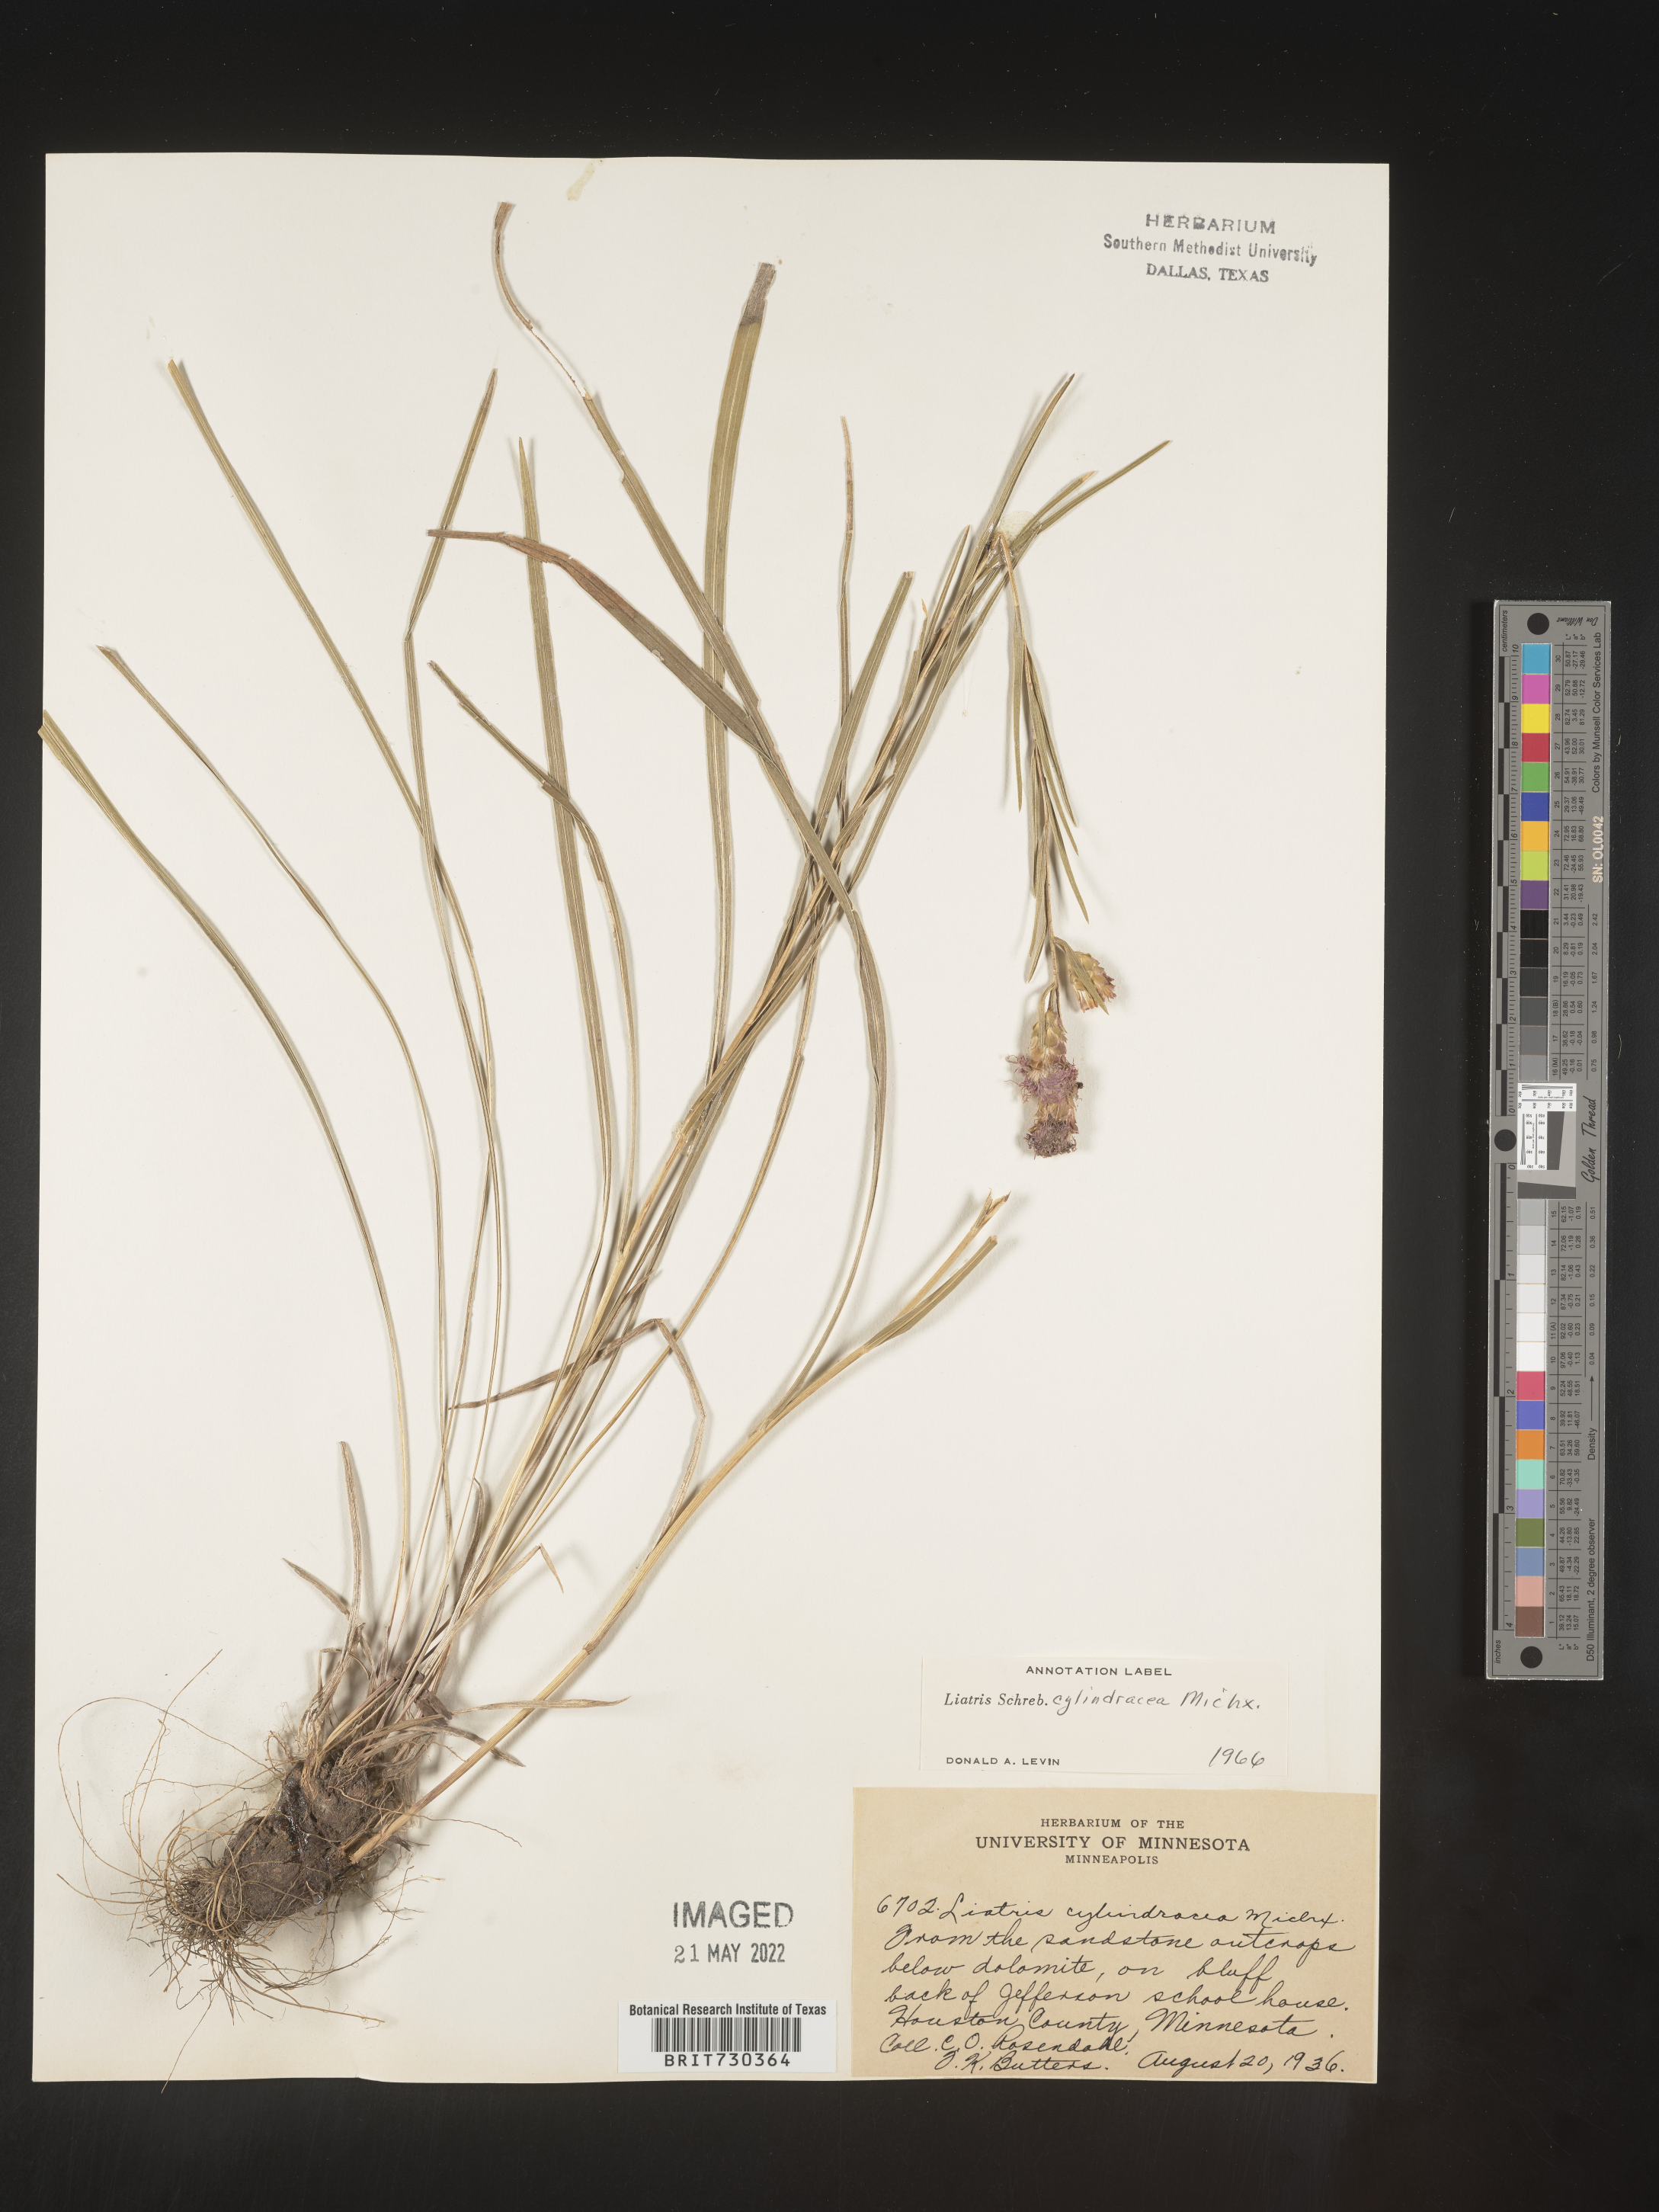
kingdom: Plantae
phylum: Tracheophyta
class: Magnoliopsida
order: Asterales
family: Asteraceae
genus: Liatris
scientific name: Liatris cylindracea
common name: Few-head blazingstar
